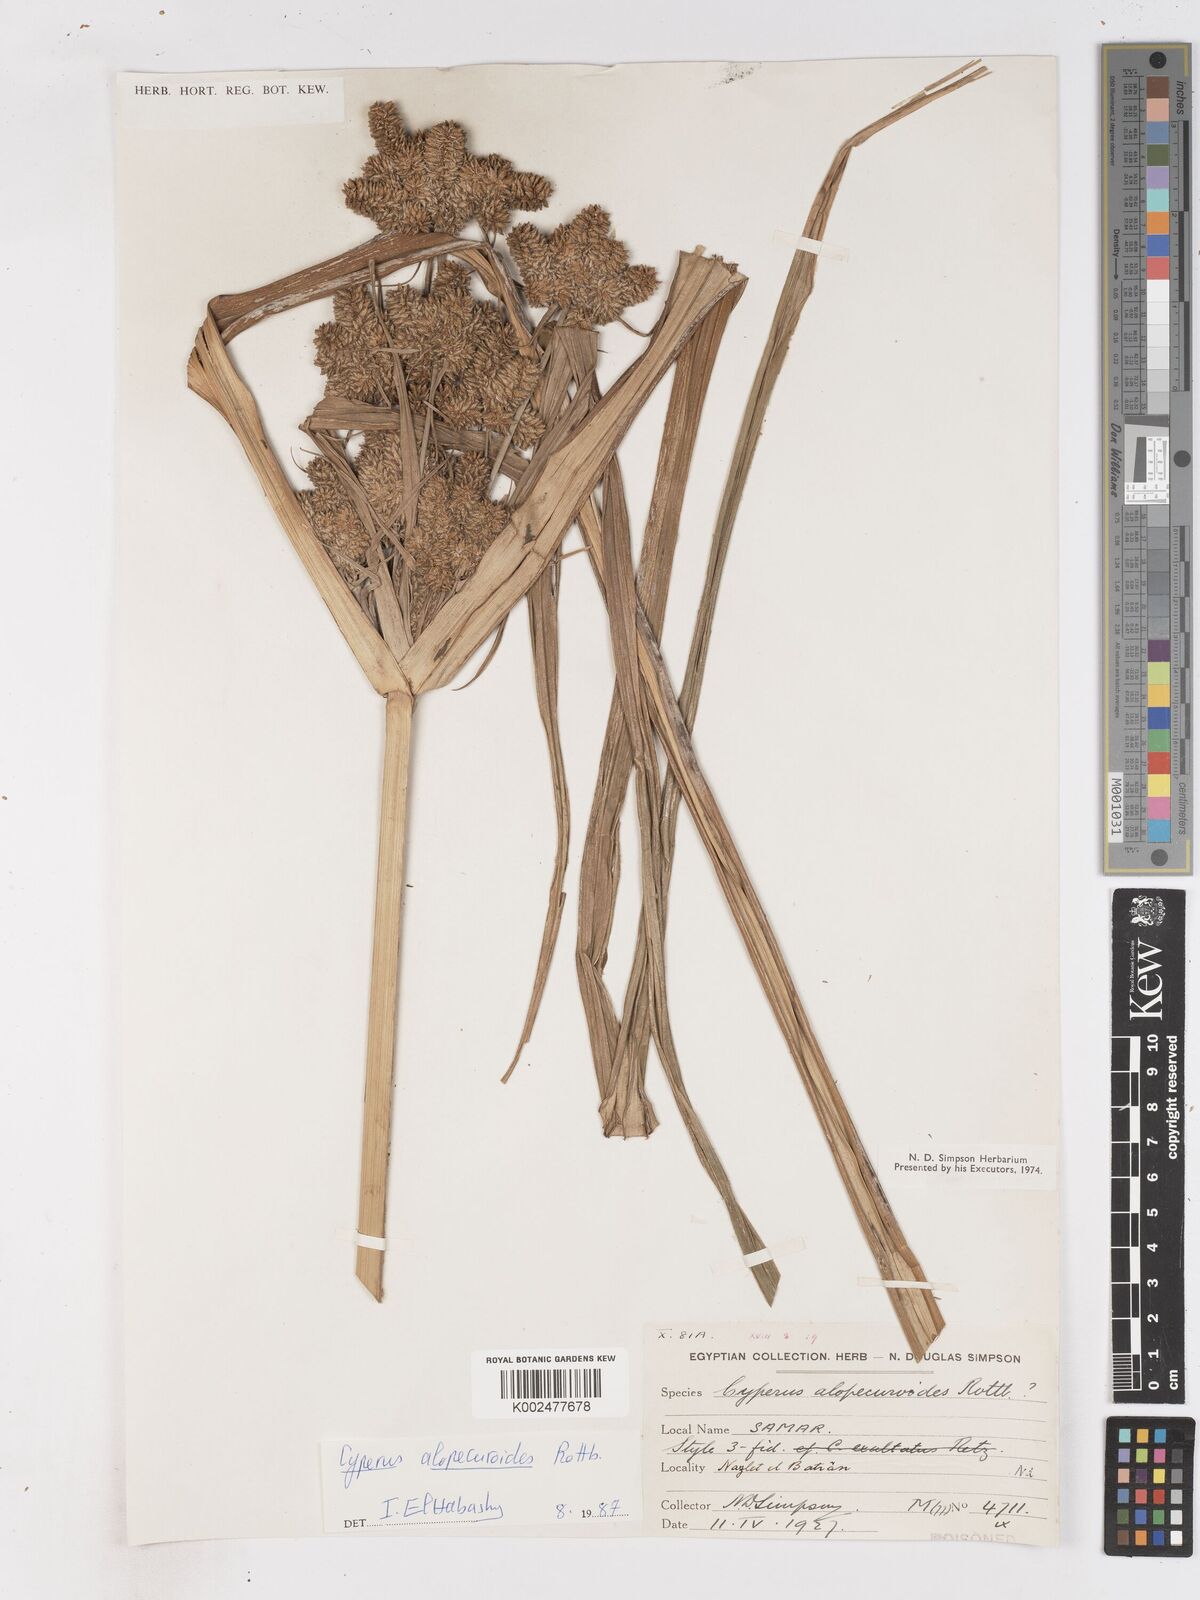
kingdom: Plantae
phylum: Tracheophyta
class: Liliopsida
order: Poales
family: Cyperaceae
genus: Cyperus
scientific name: Cyperus alopecuroides
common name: Foxtail flatsedge
